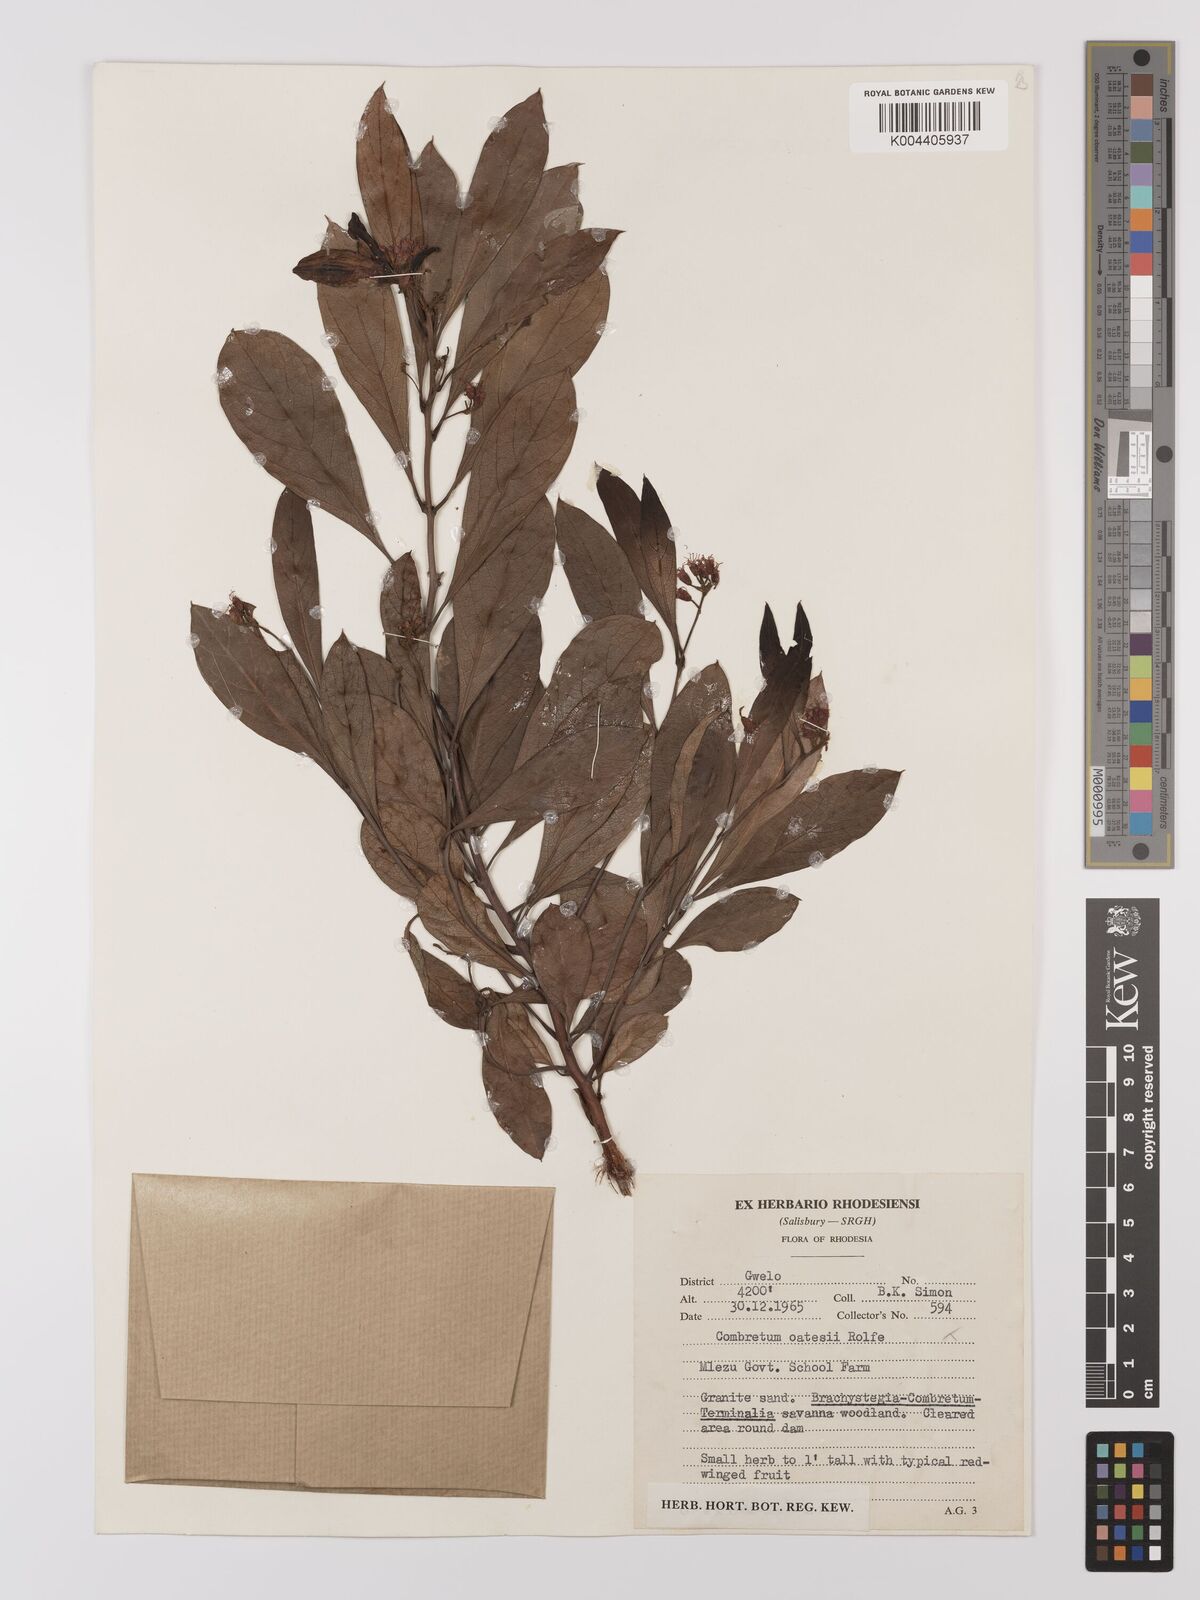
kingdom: Plantae
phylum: Tracheophyta
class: Magnoliopsida
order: Myrtales
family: Combretaceae
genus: Combretum
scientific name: Combretum platypetalum
